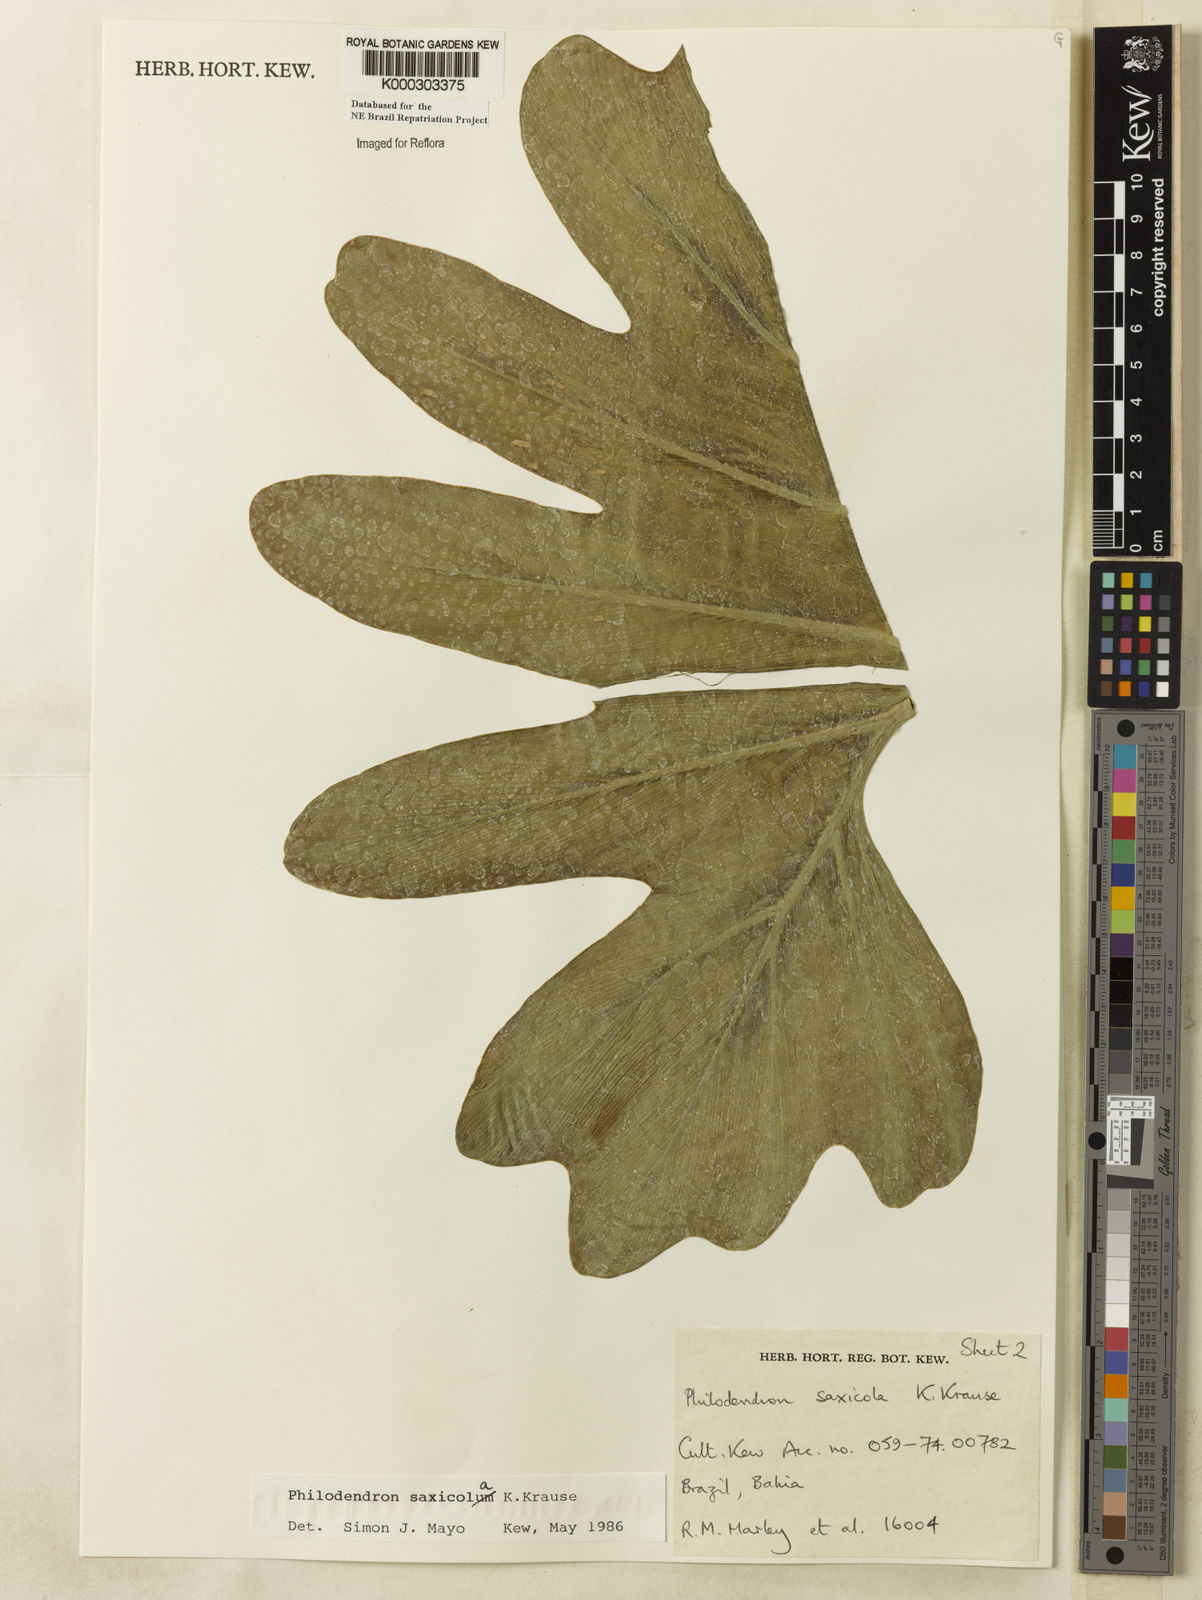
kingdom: Plantae
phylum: Tracheophyta
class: Liliopsida
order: Alismatales
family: Araceae
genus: Thaumatophyllum
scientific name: Thaumatophyllum saxicola
